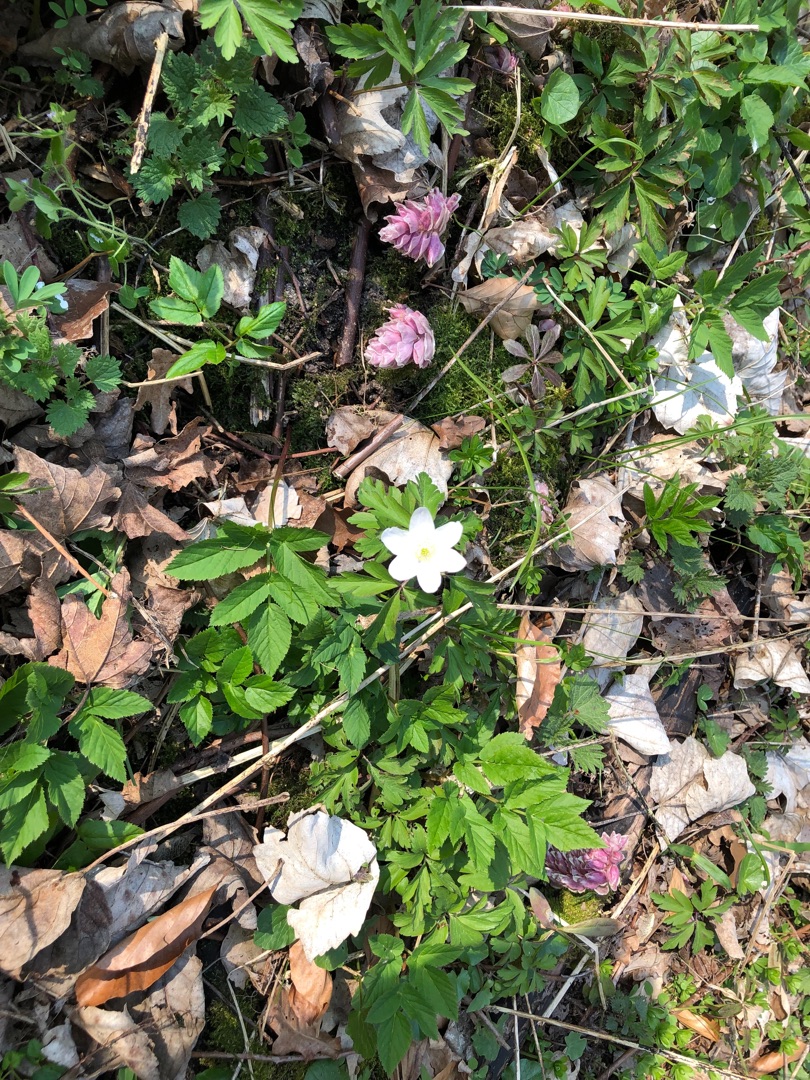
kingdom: Plantae
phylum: Tracheophyta
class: Magnoliopsida
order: Ranunculales
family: Ranunculaceae
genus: Anemone
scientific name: Anemone nemorosa
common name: Hvid anemone
